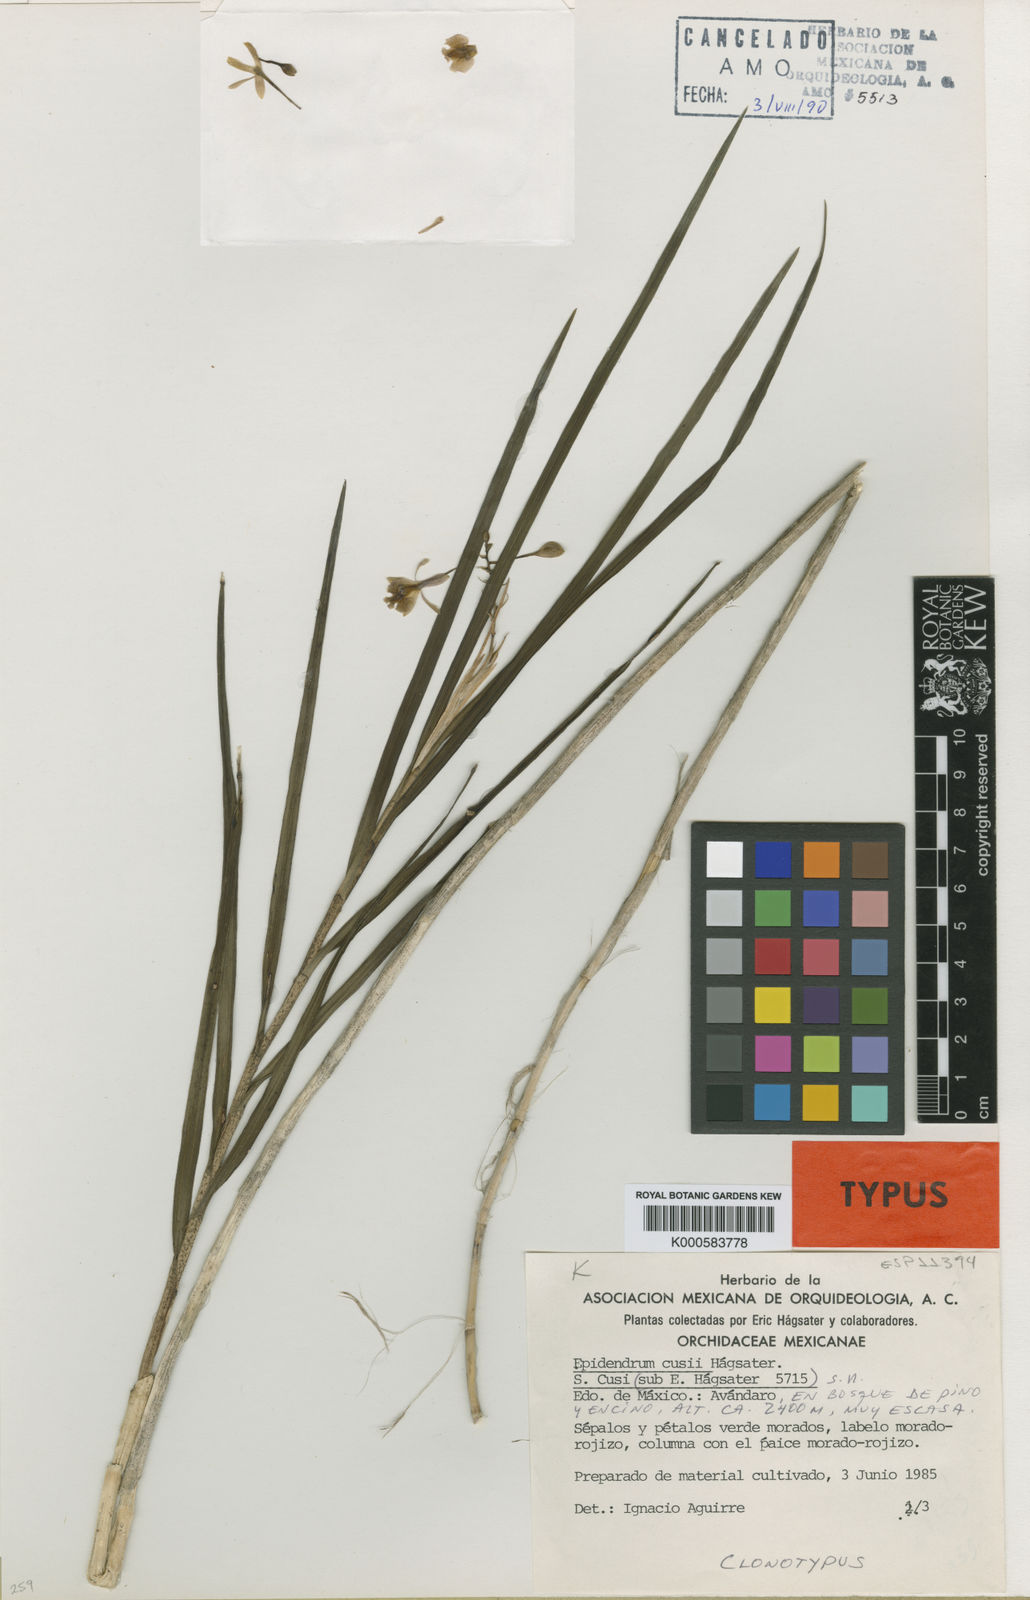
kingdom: Plantae
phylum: Tracheophyta
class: Liliopsida
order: Asparagales
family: Orchidaceae
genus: Epidendrum
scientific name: Epidendrum
